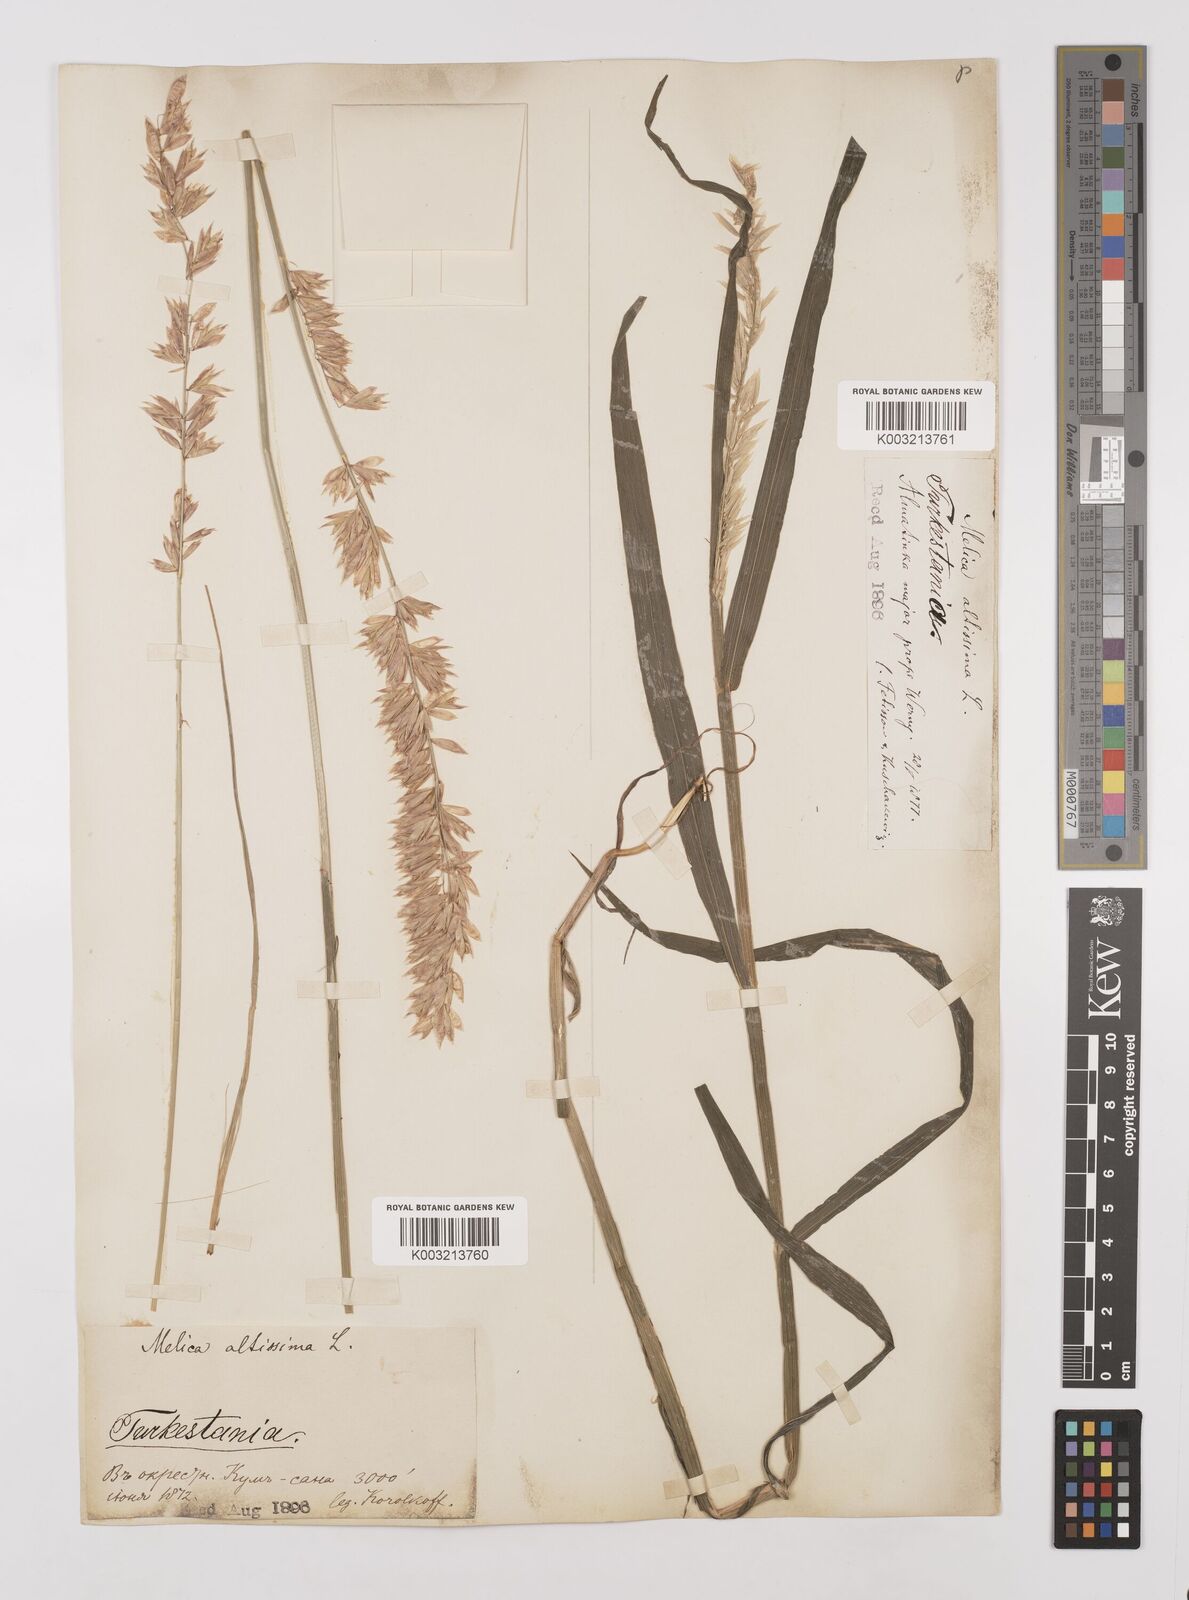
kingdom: Plantae
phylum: Tracheophyta
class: Liliopsida
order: Poales
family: Poaceae
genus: Melica
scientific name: Melica
